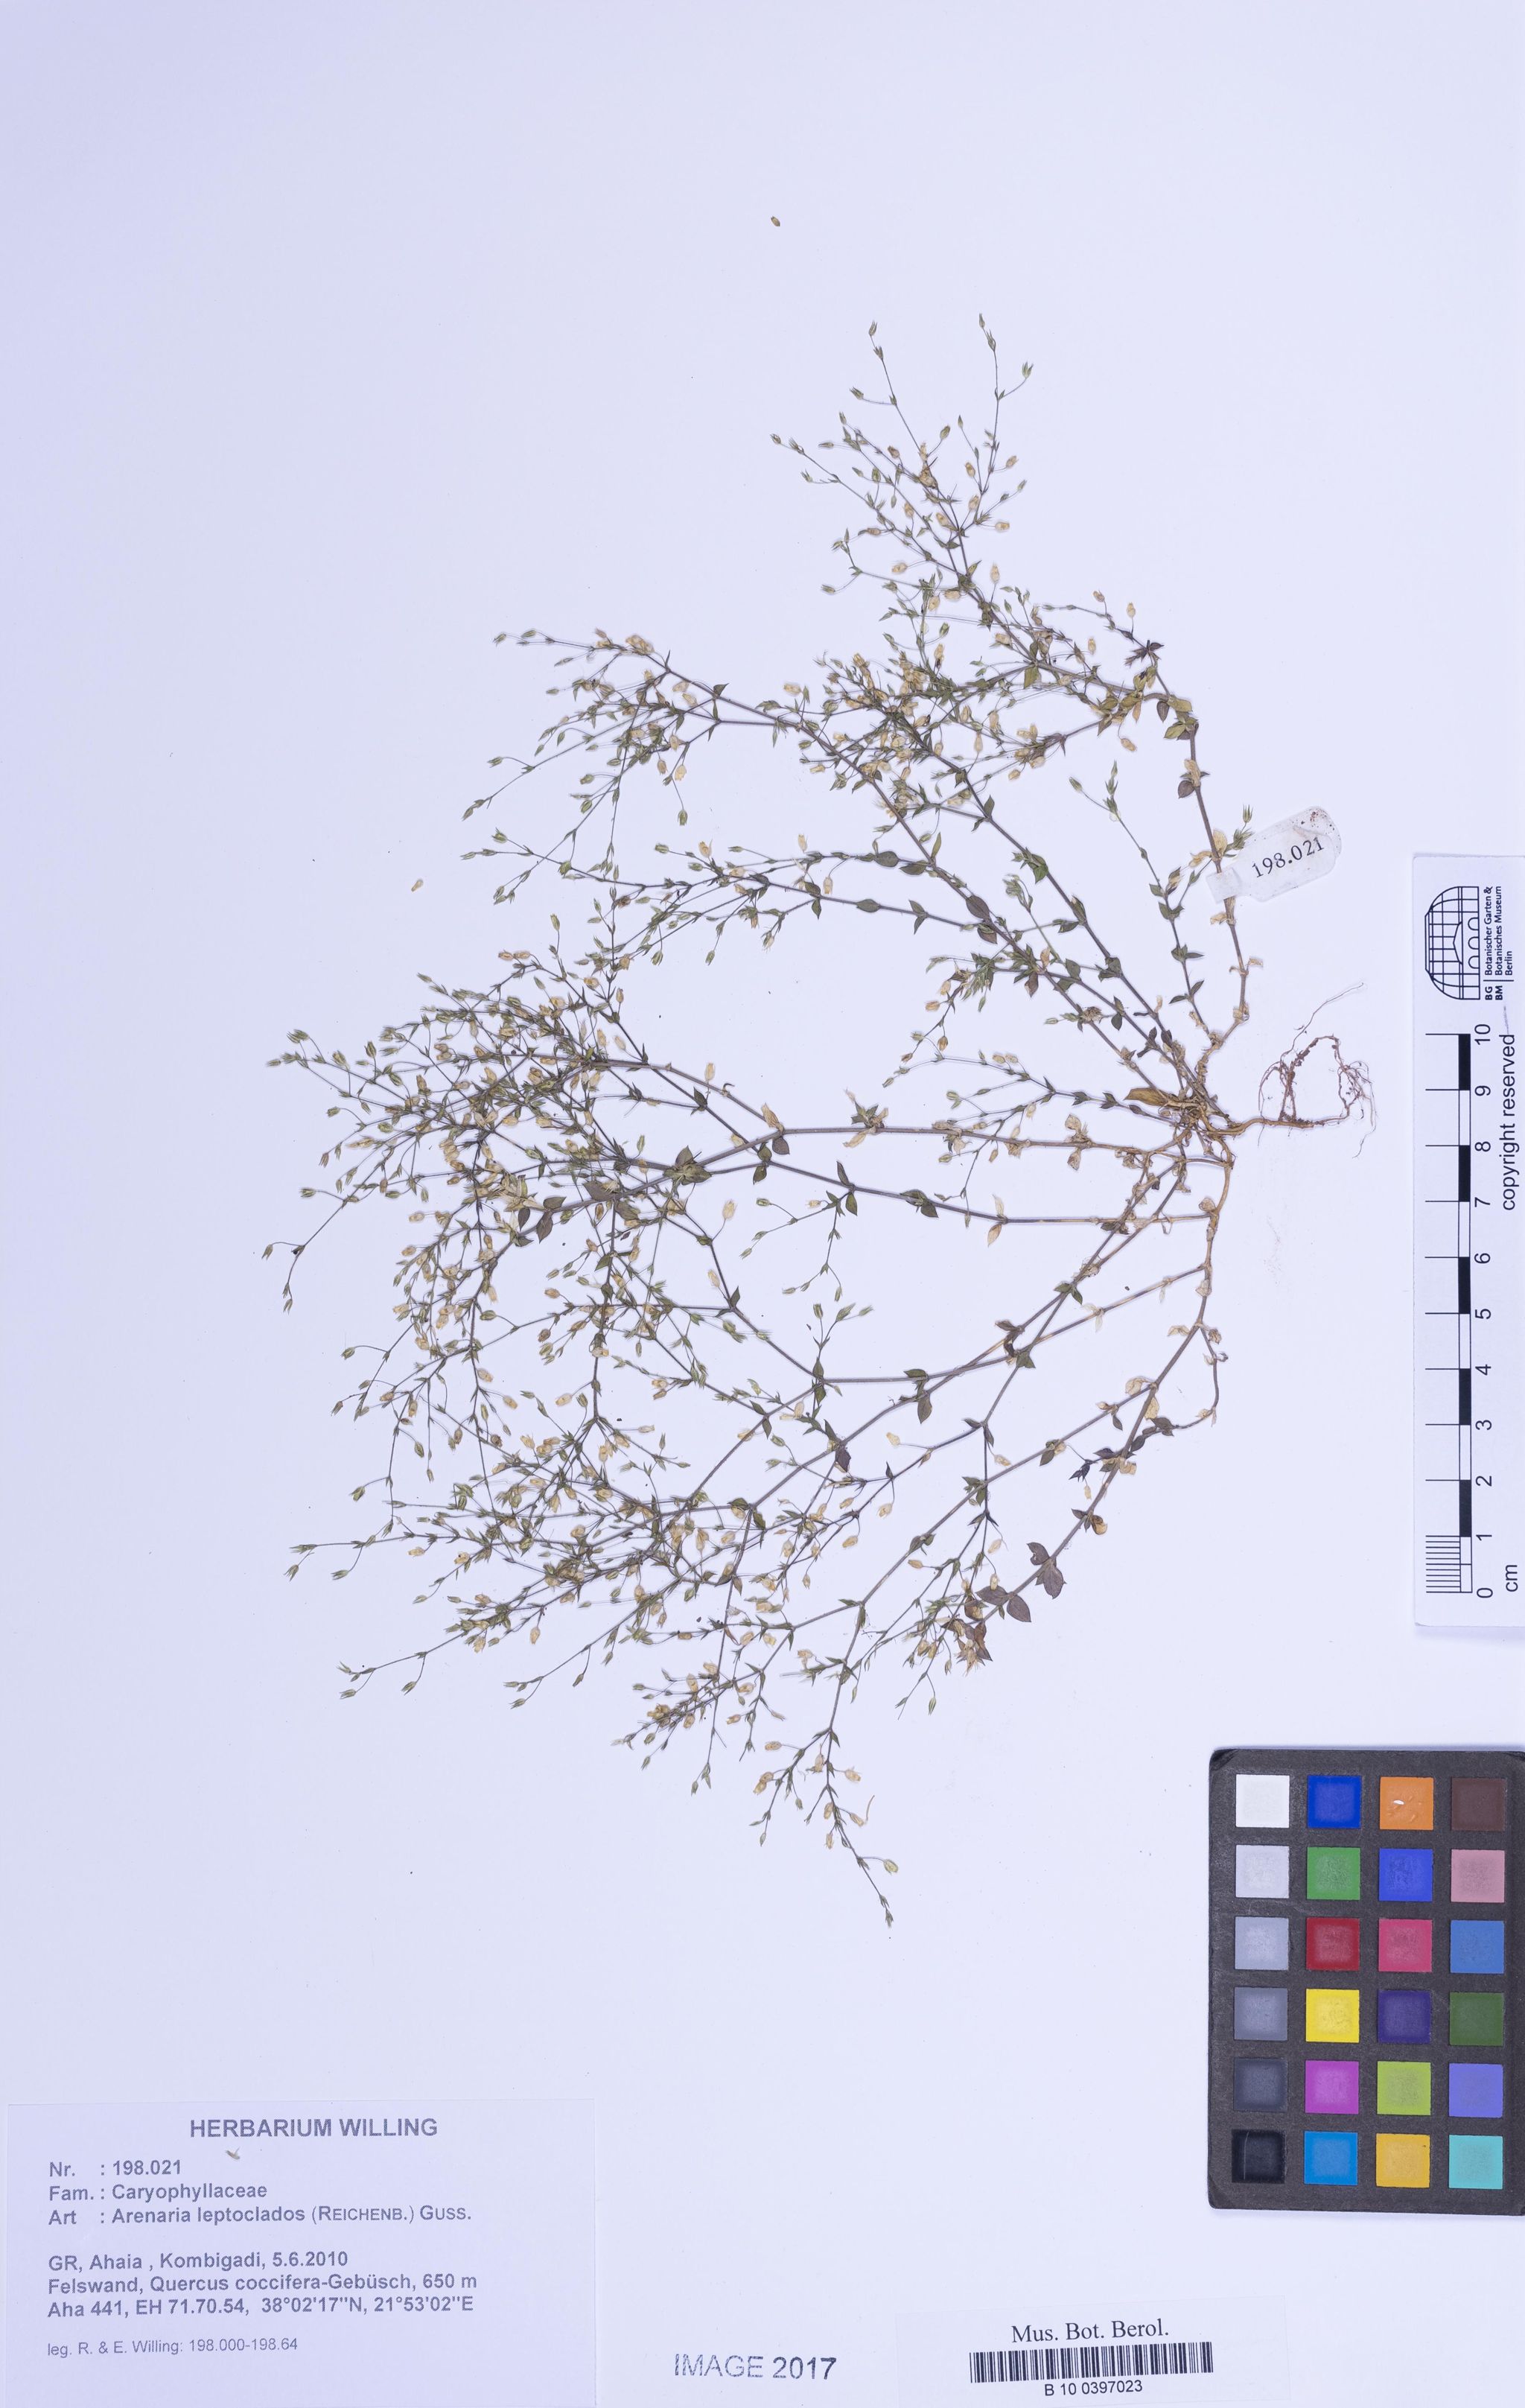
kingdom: Plantae
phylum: Tracheophyta
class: Magnoliopsida
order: Caryophyllales
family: Caryophyllaceae
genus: Arenaria
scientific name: Arenaria leptoclados
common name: Thyme-leaved sandwort
